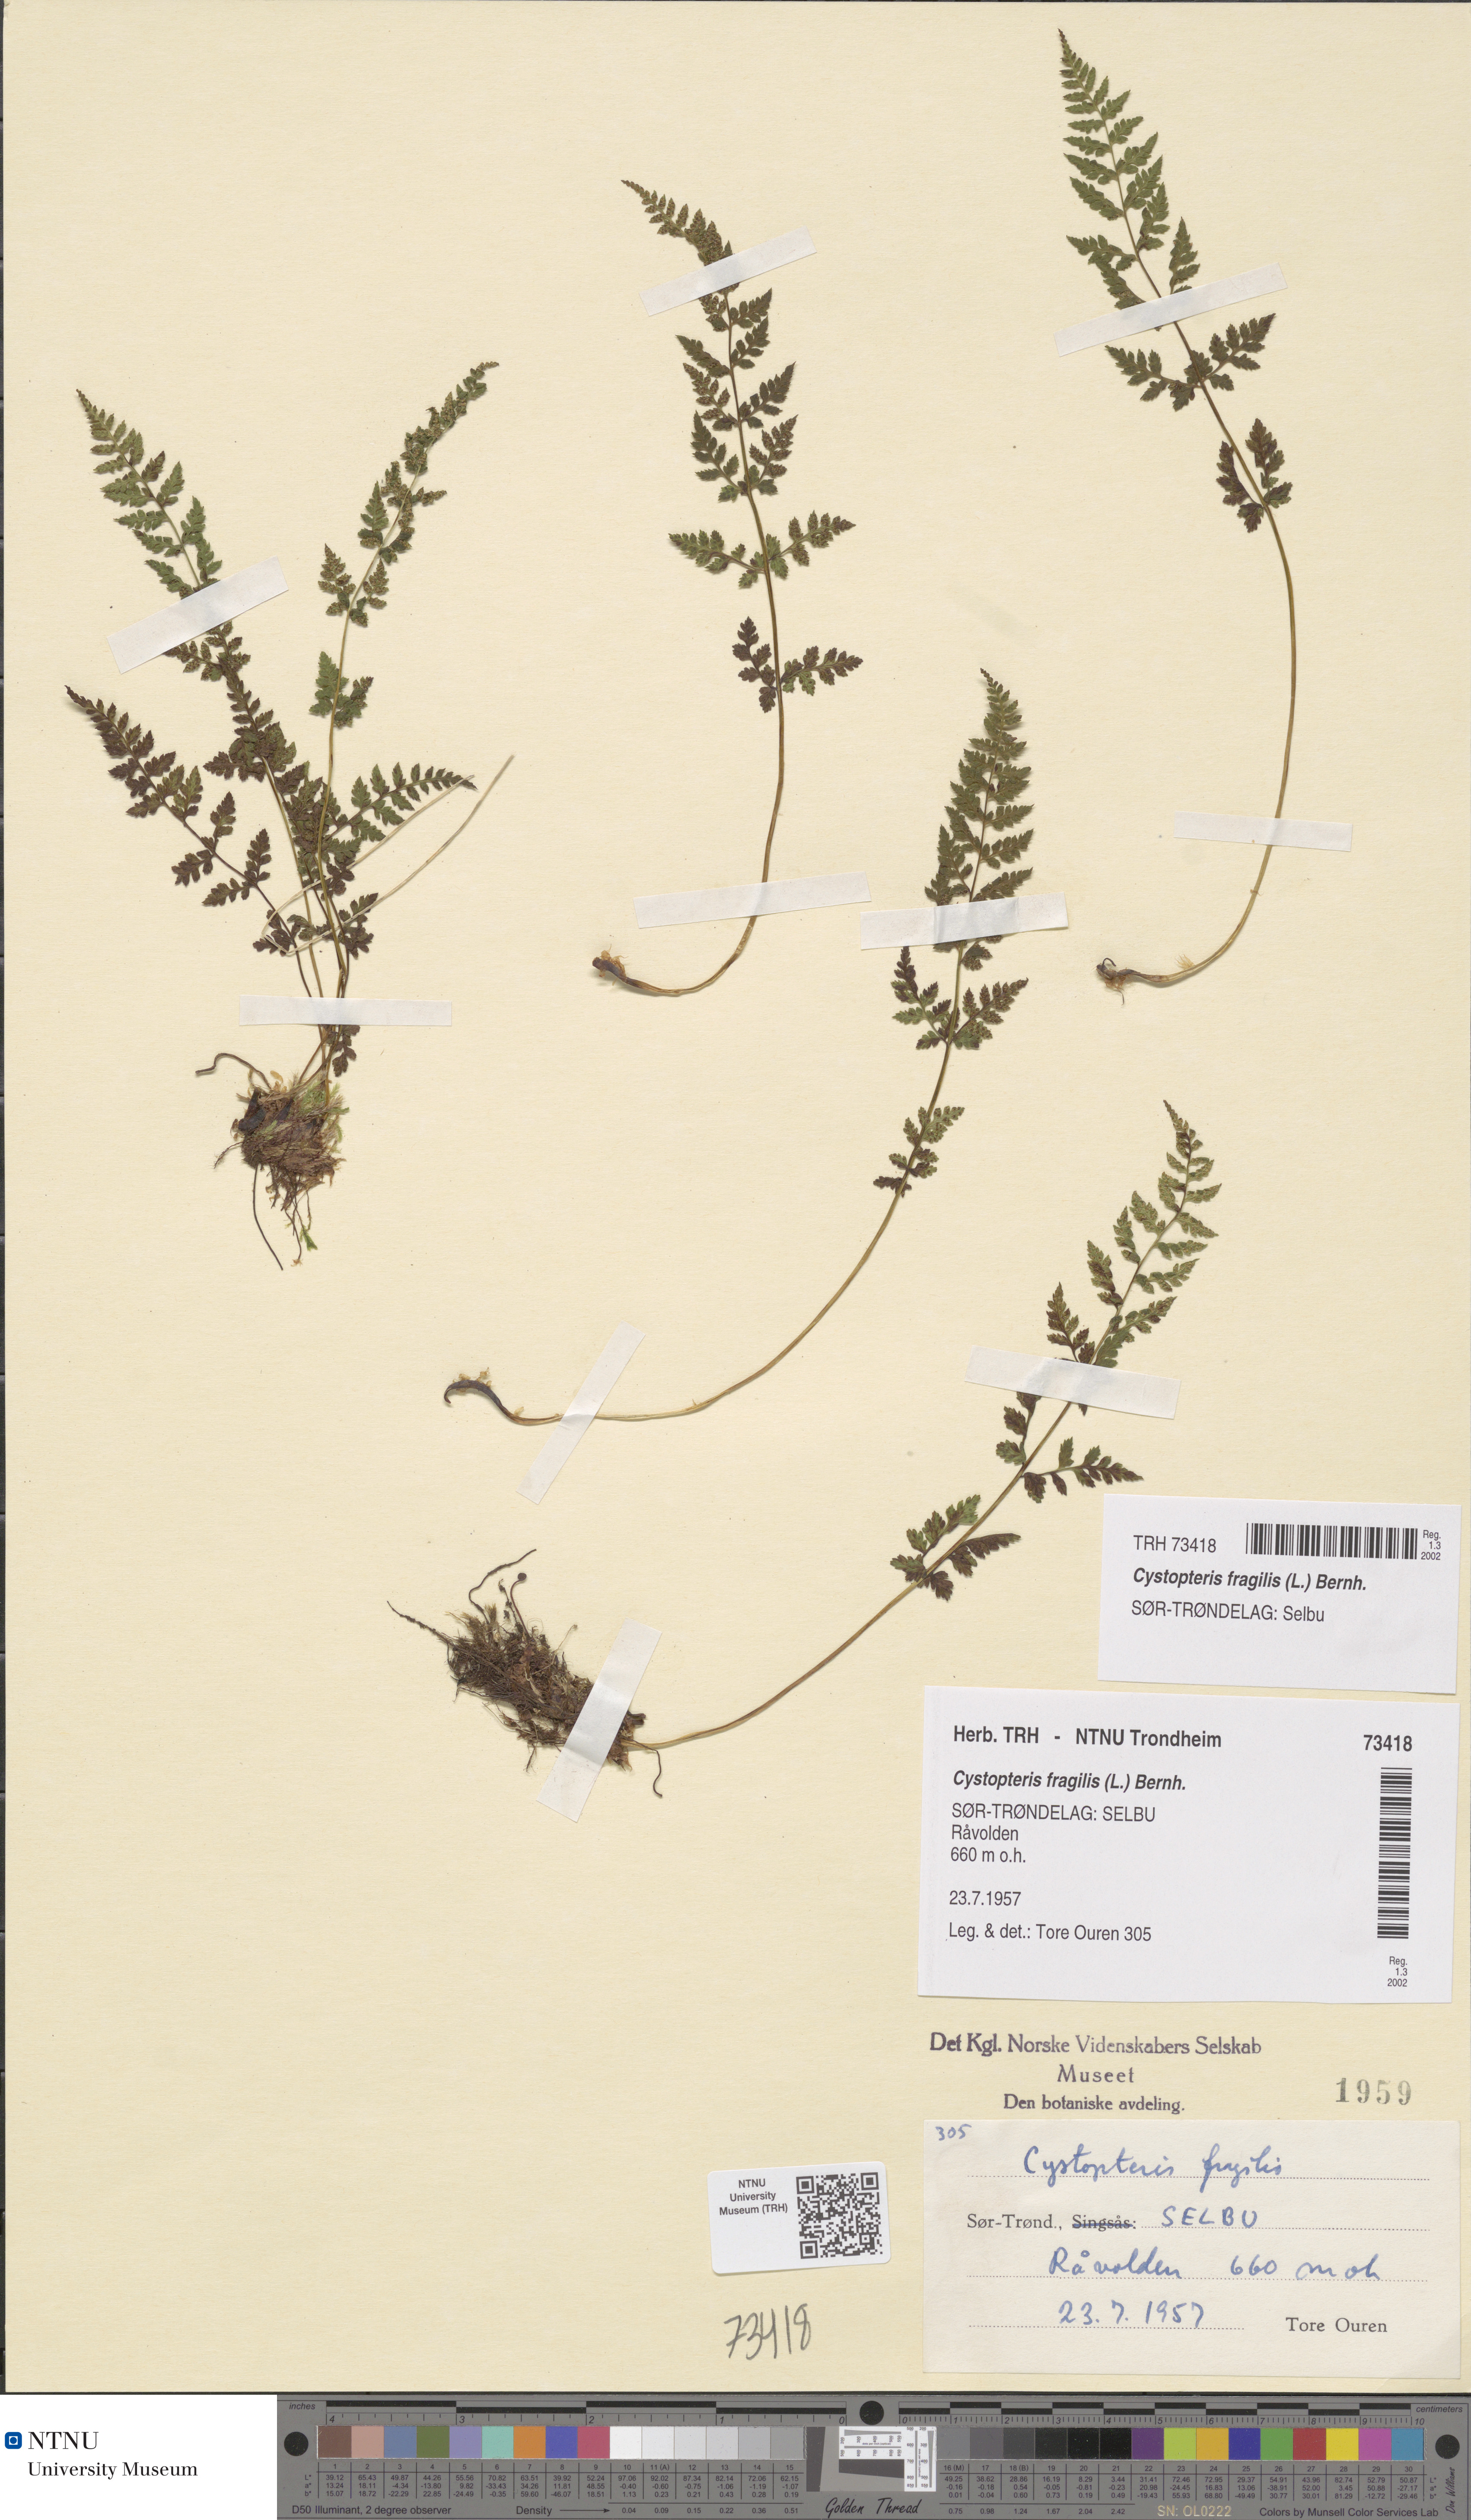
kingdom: Plantae
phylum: Tracheophyta
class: Polypodiopsida
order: Polypodiales
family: Cystopteridaceae
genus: Cystopteris
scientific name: Cystopteris fragilis
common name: Brittle bladder fern
